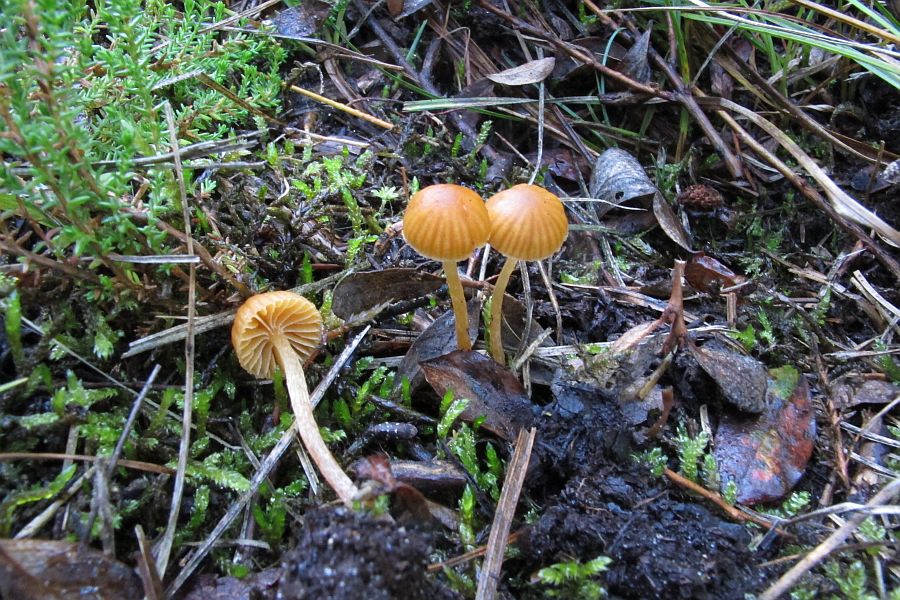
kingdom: Fungi
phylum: Basidiomycota
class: Agaricomycetes
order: Agaricales
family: Hymenogastraceae
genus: Galerina
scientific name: Galerina calyptrata
